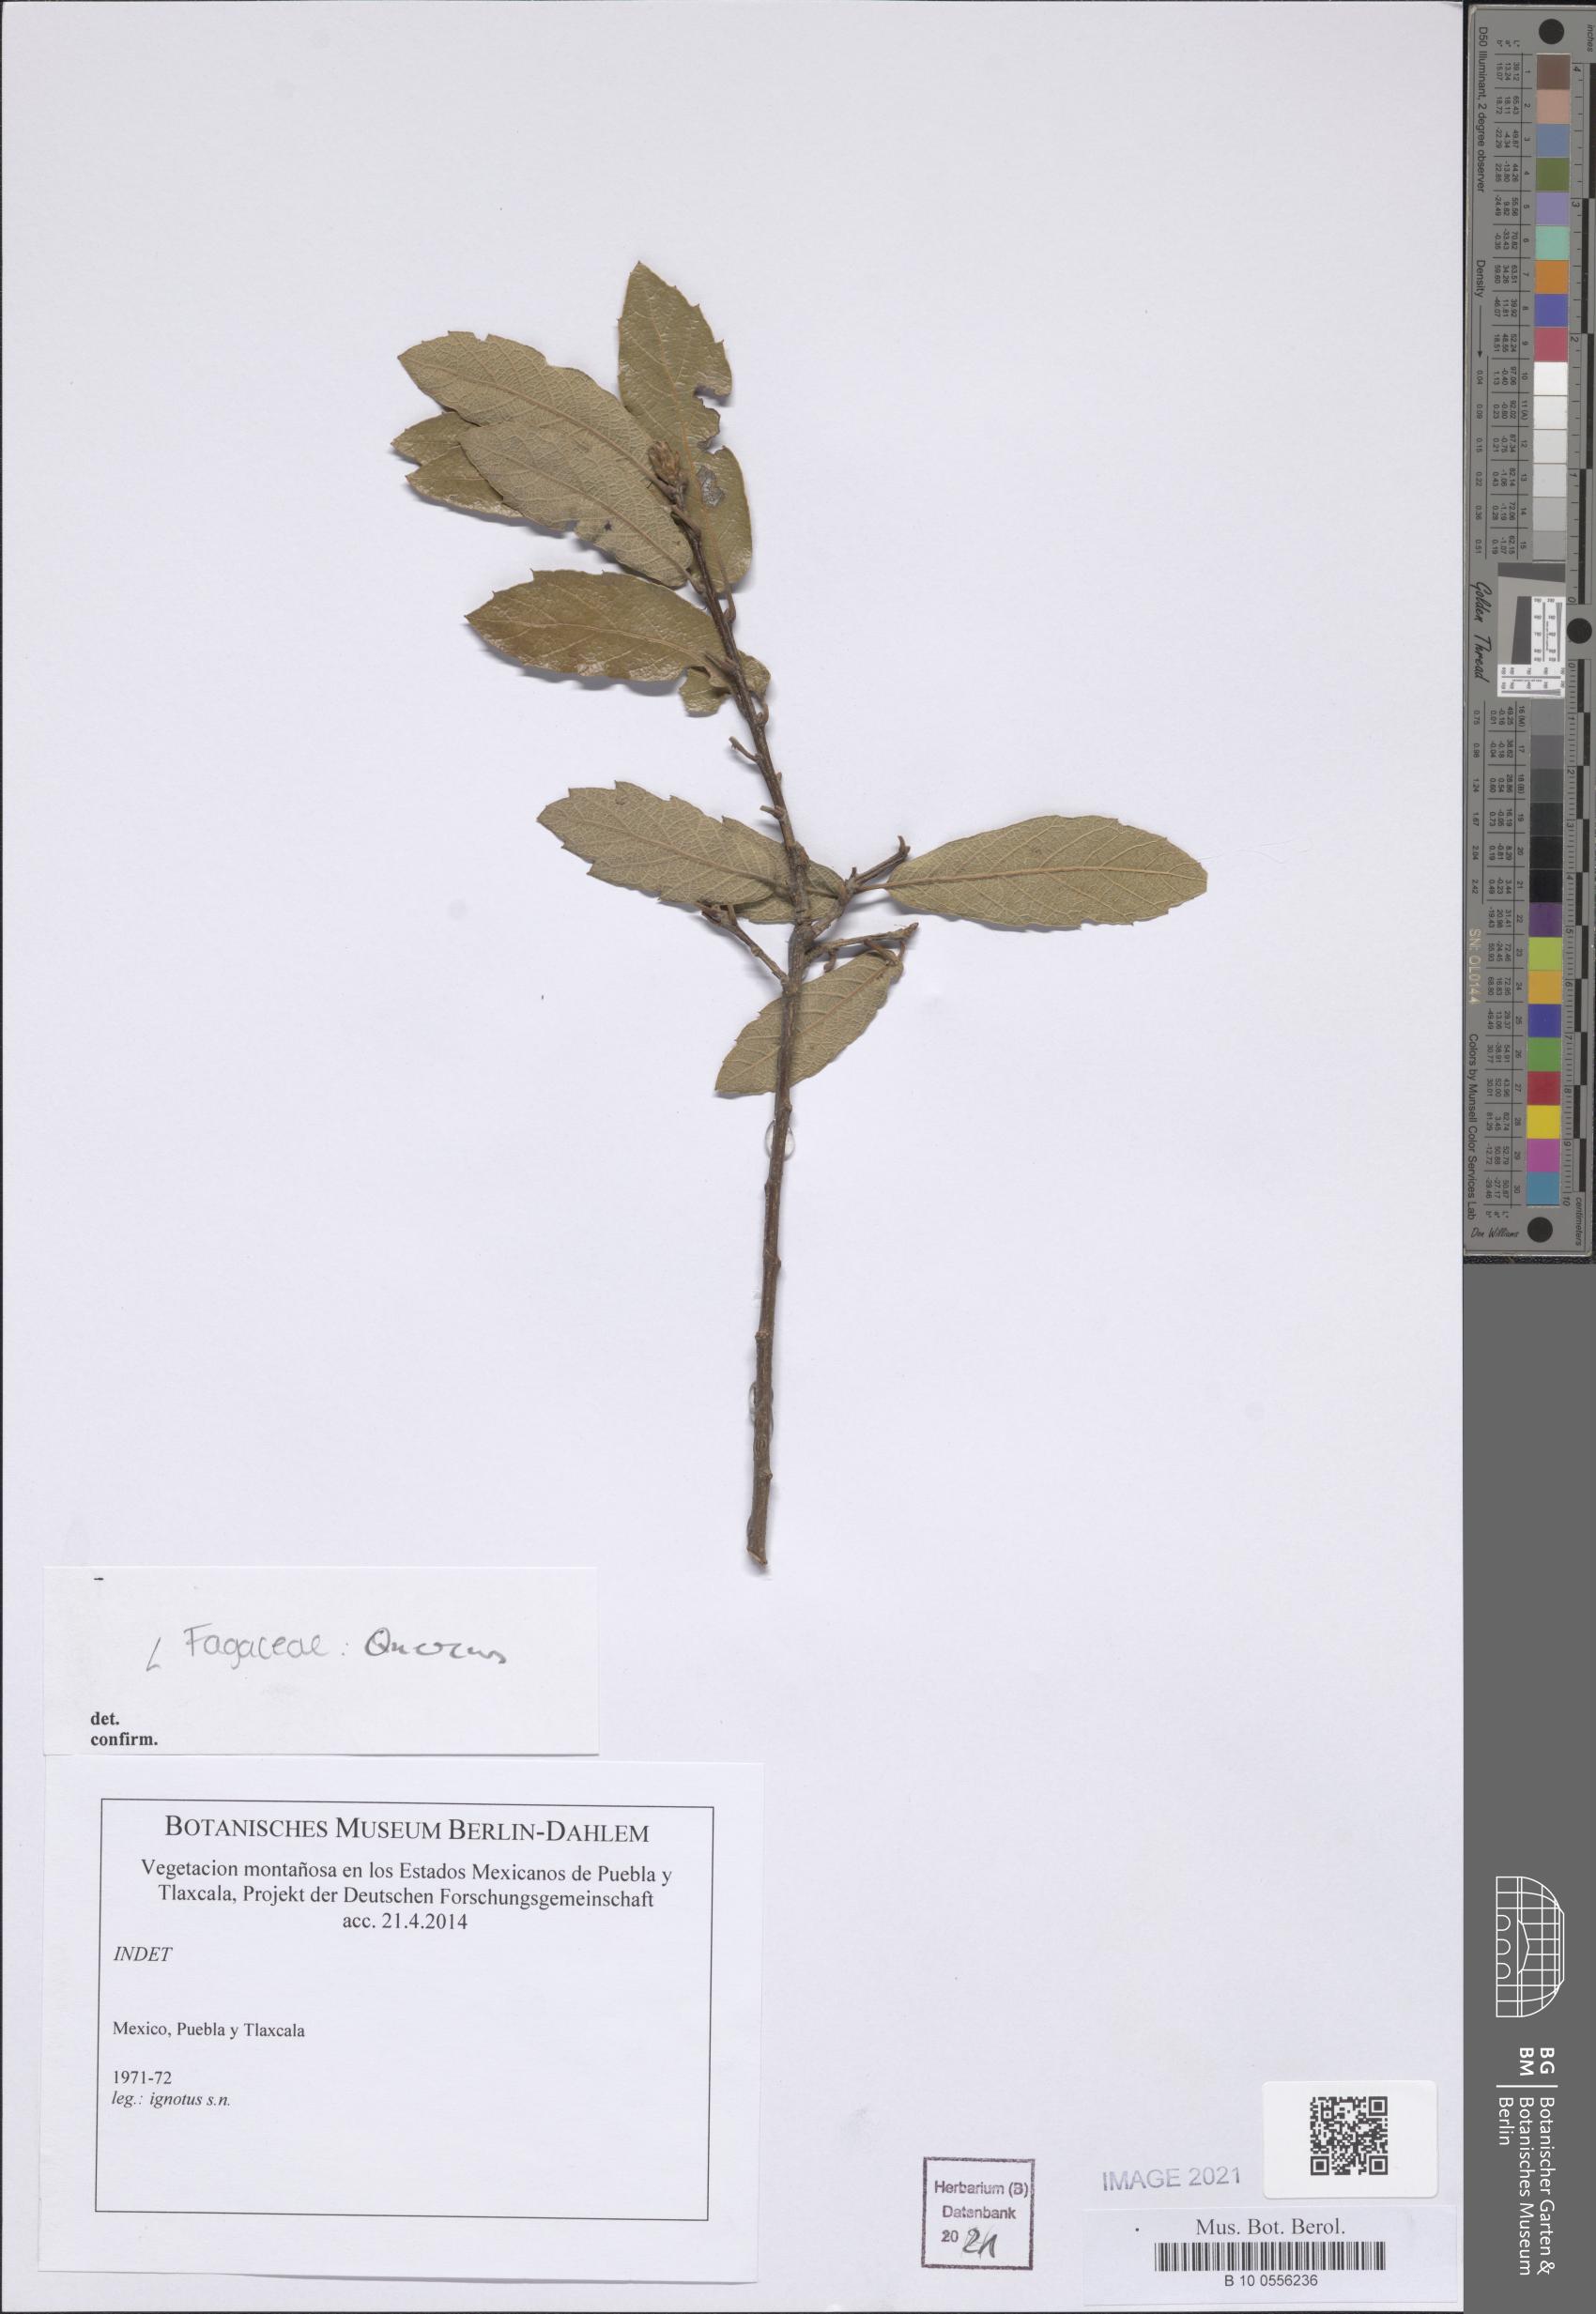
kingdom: Plantae
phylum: Tracheophyta
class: Magnoliopsida
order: Fagales
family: Fagaceae
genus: Quercus
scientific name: Quercus
